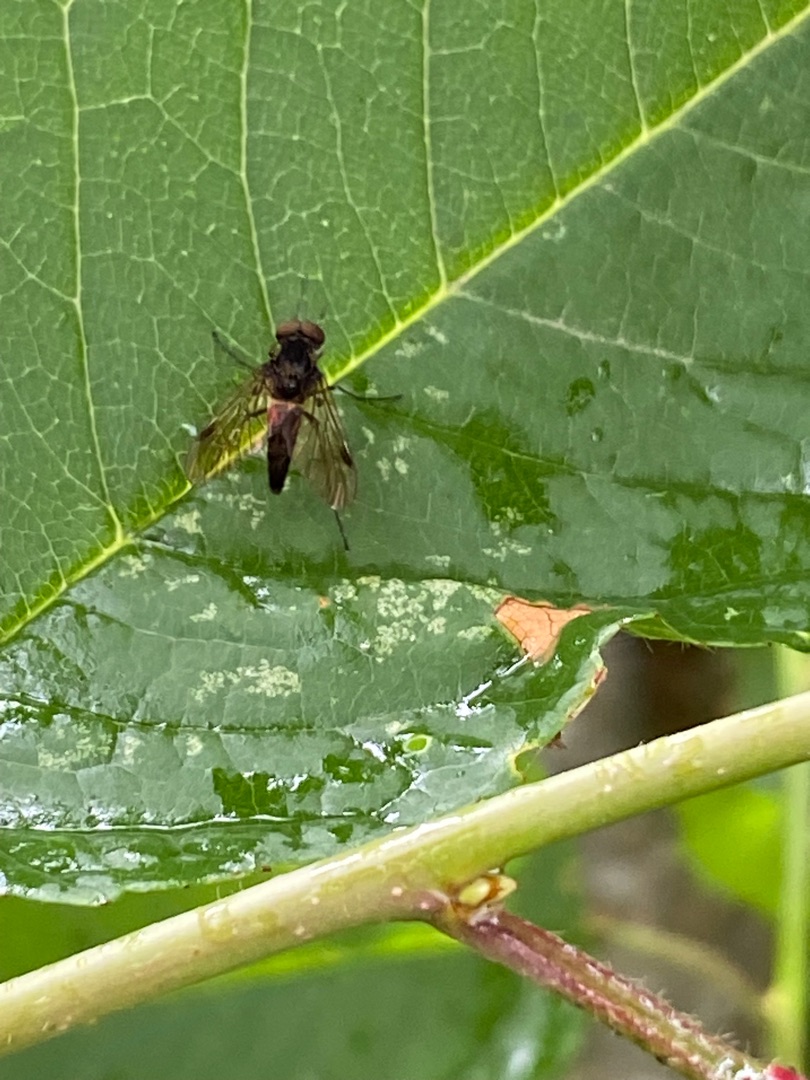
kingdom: Animalia
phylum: Arthropoda
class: Insecta
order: Diptera
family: Rhagionidae
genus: Chrysopilus
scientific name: Chrysopilus cristatus
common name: Gulhåret sneppeflue
